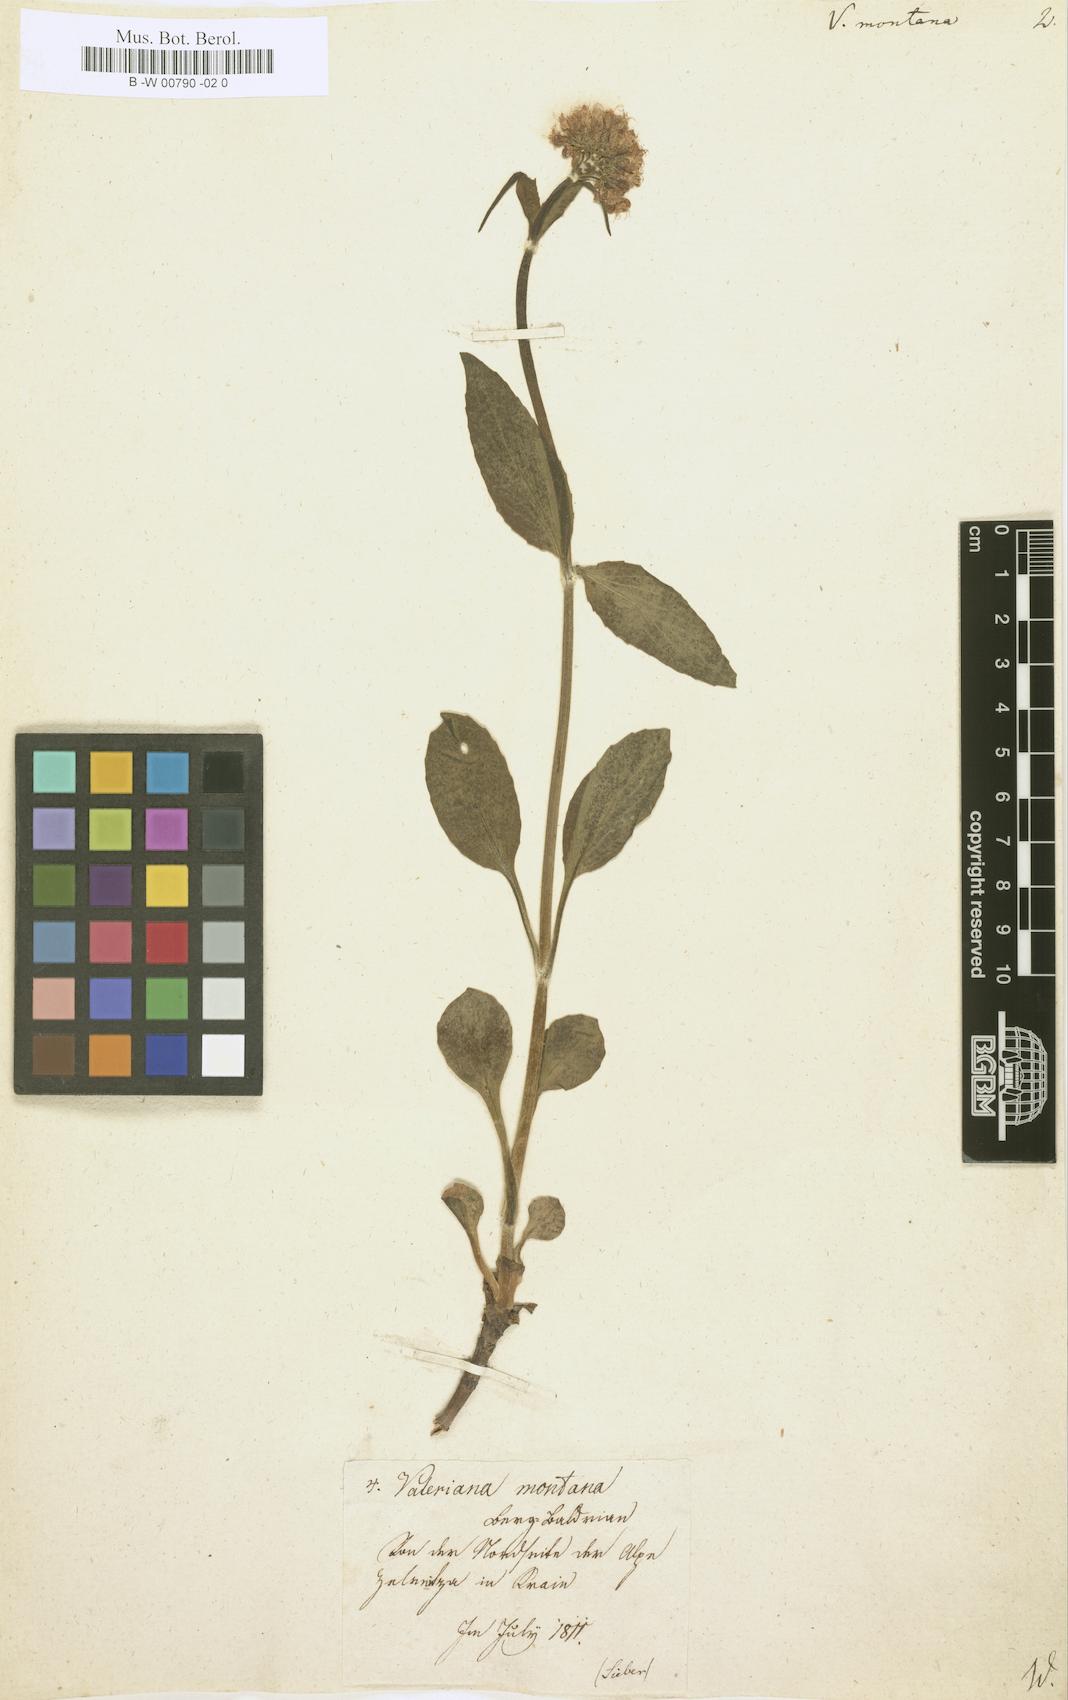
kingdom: Plantae
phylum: Tracheophyta
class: Magnoliopsida
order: Dipsacales
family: Caprifoliaceae
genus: Valeriana
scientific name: Valeriana montana
